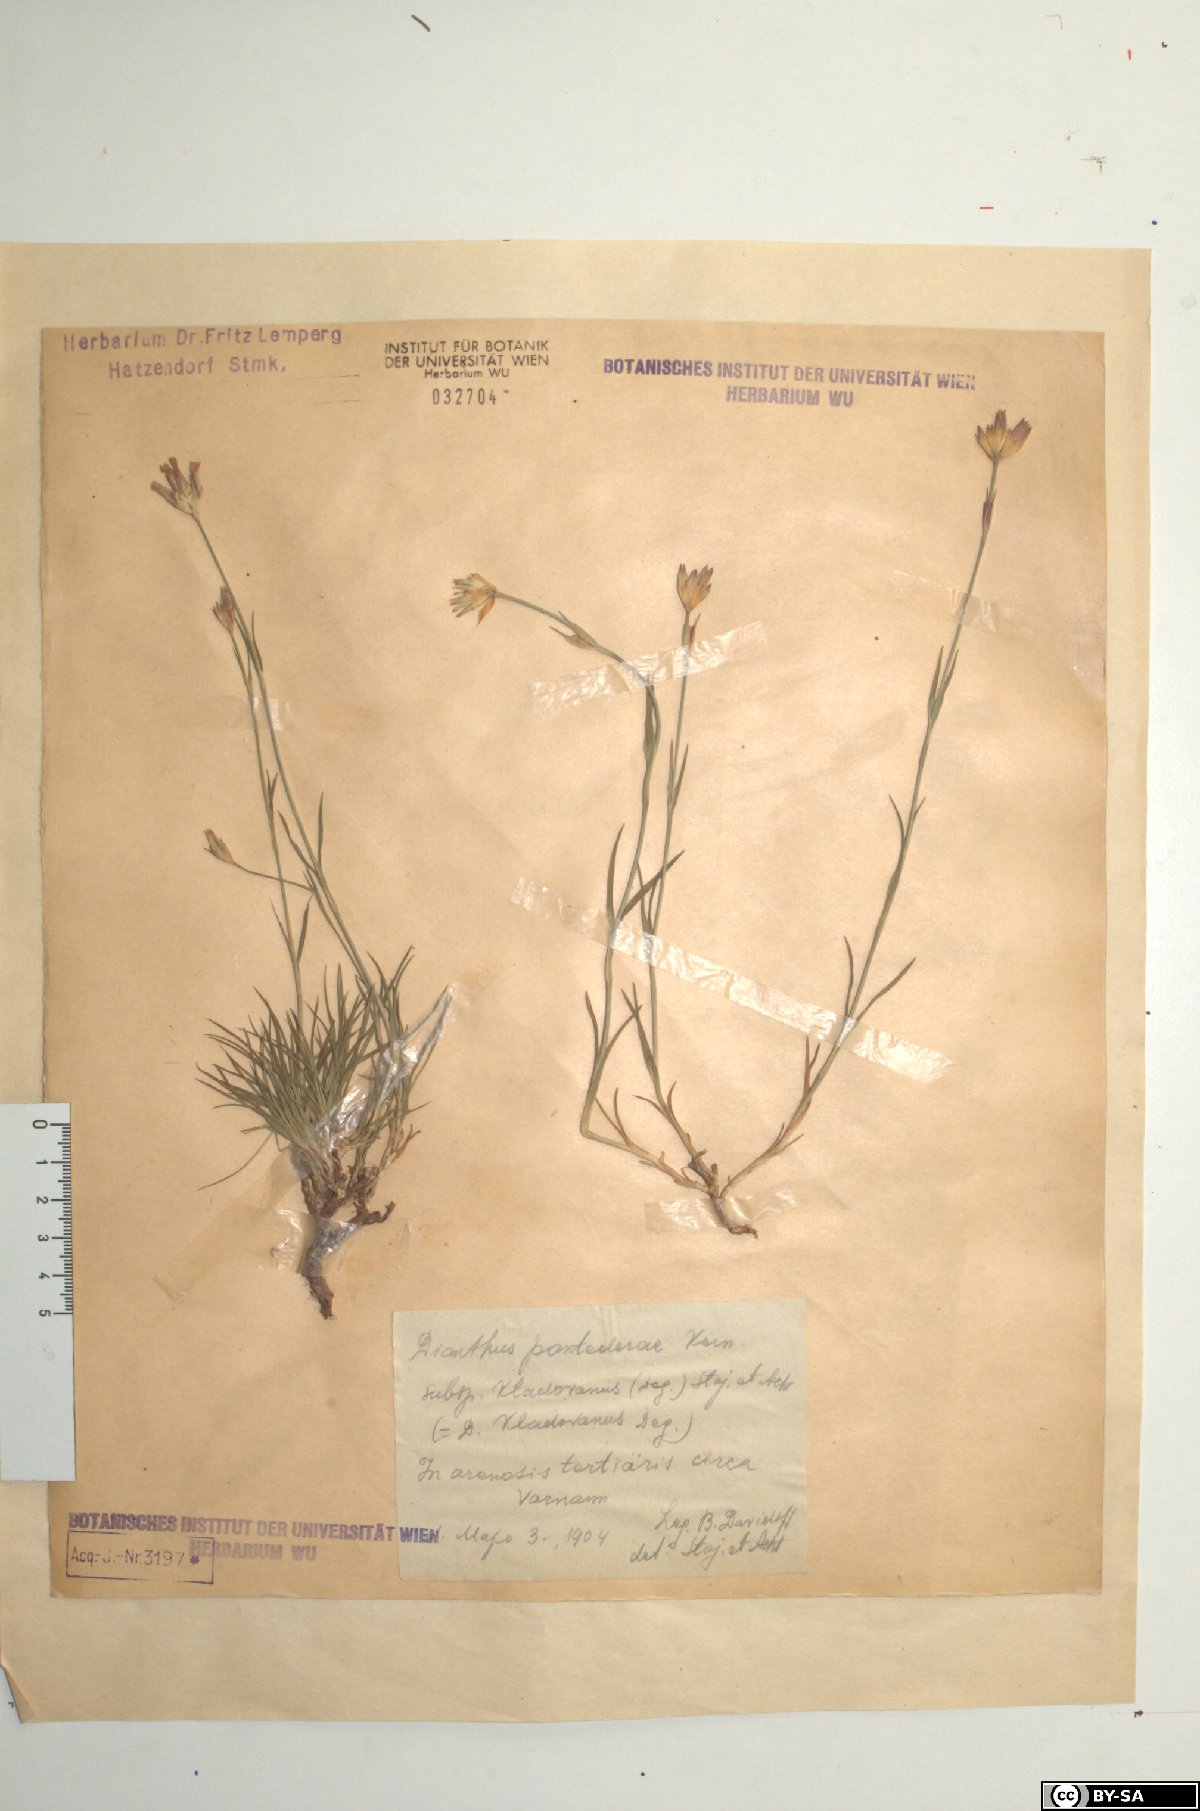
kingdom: Plantae
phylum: Tracheophyta
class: Magnoliopsida
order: Caryophyllales
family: Caryophyllaceae
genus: Dianthus
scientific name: Dianthus pontederae
